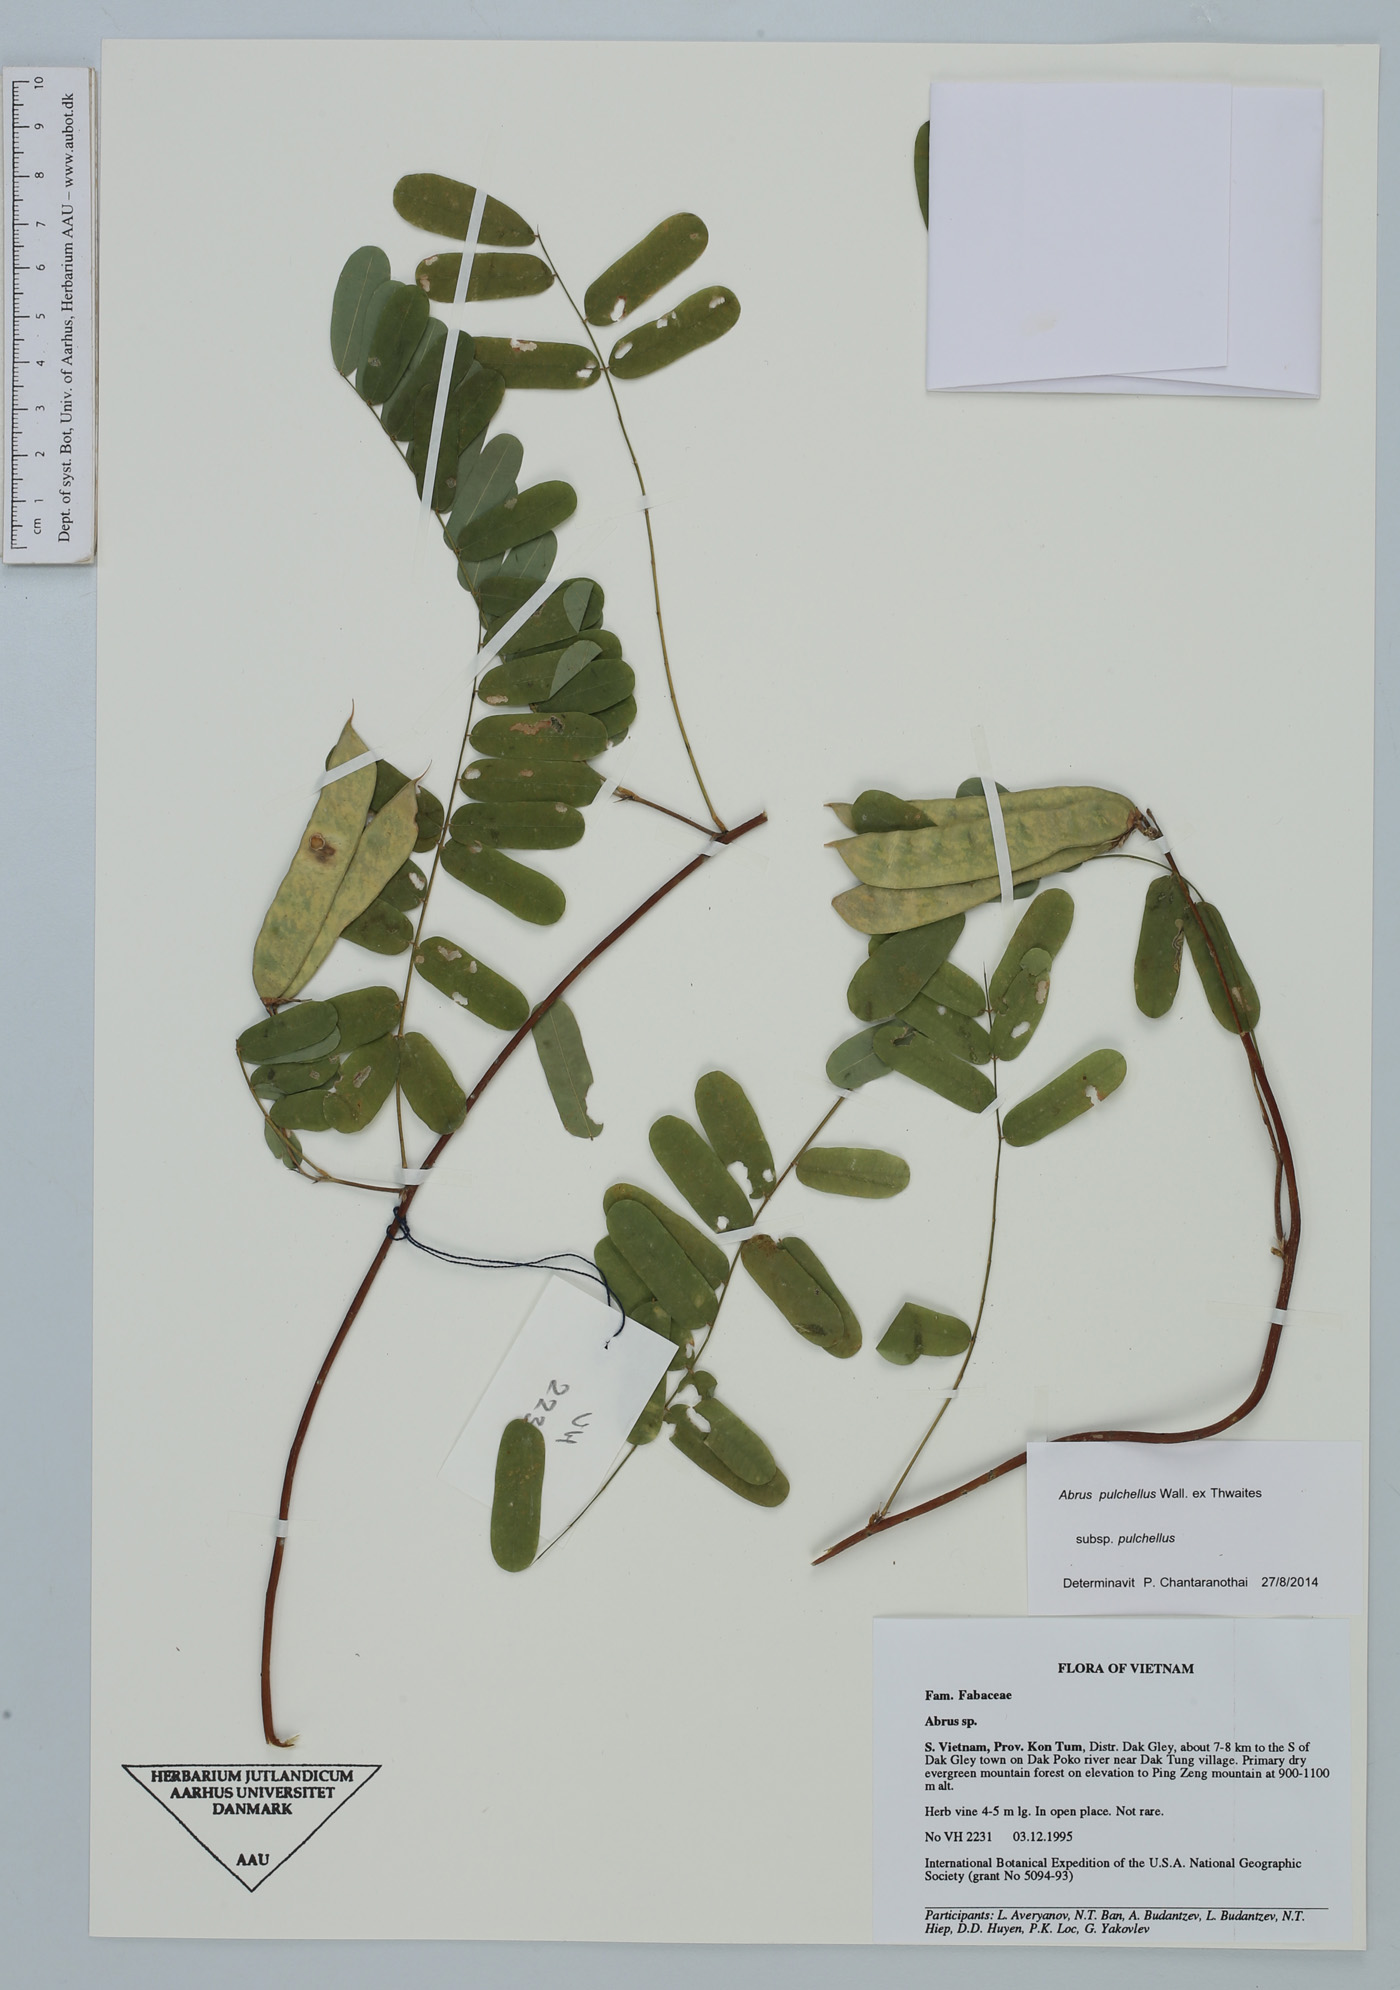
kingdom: Plantae
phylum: Tracheophyta
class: Magnoliopsida
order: Fabales
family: Fabaceae
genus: Abrus
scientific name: Abrus fruticulosus
